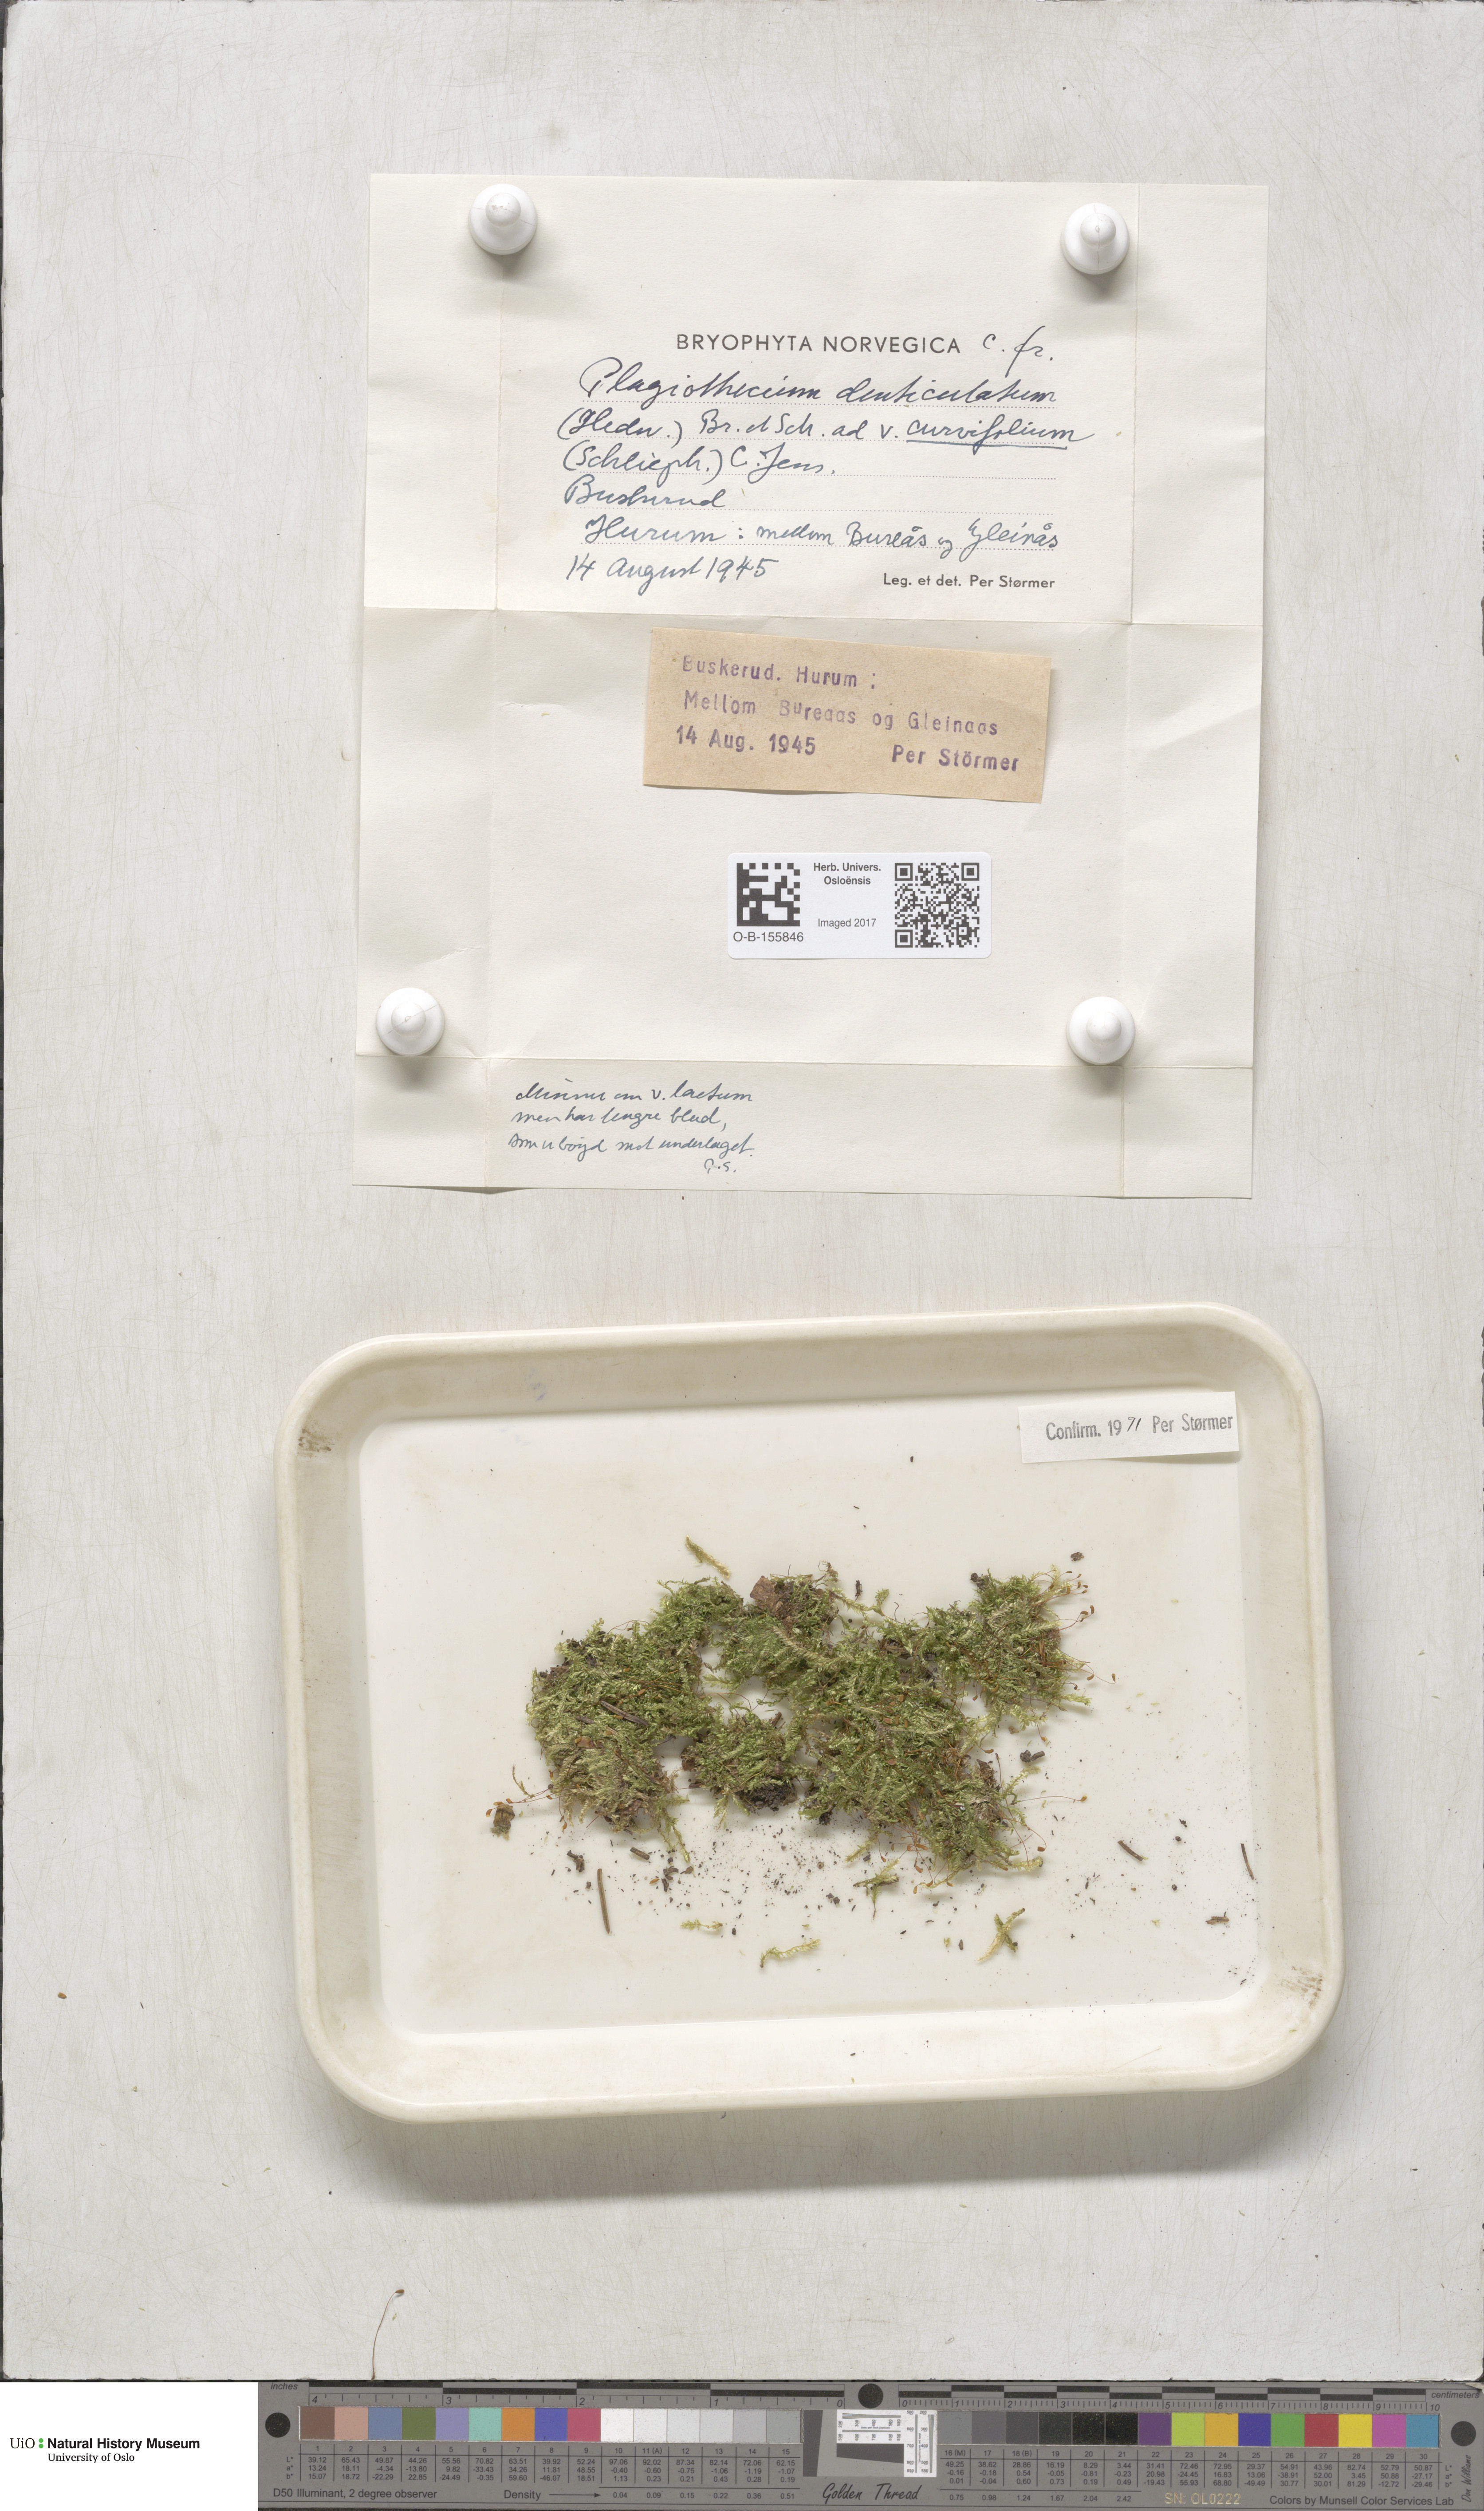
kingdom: Plantae
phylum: Bryophyta
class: Bryopsida
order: Hypnales
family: Plagiotheciaceae
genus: Plagiothecium
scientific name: Plagiothecium curvifolium
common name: Curved silk-moss
